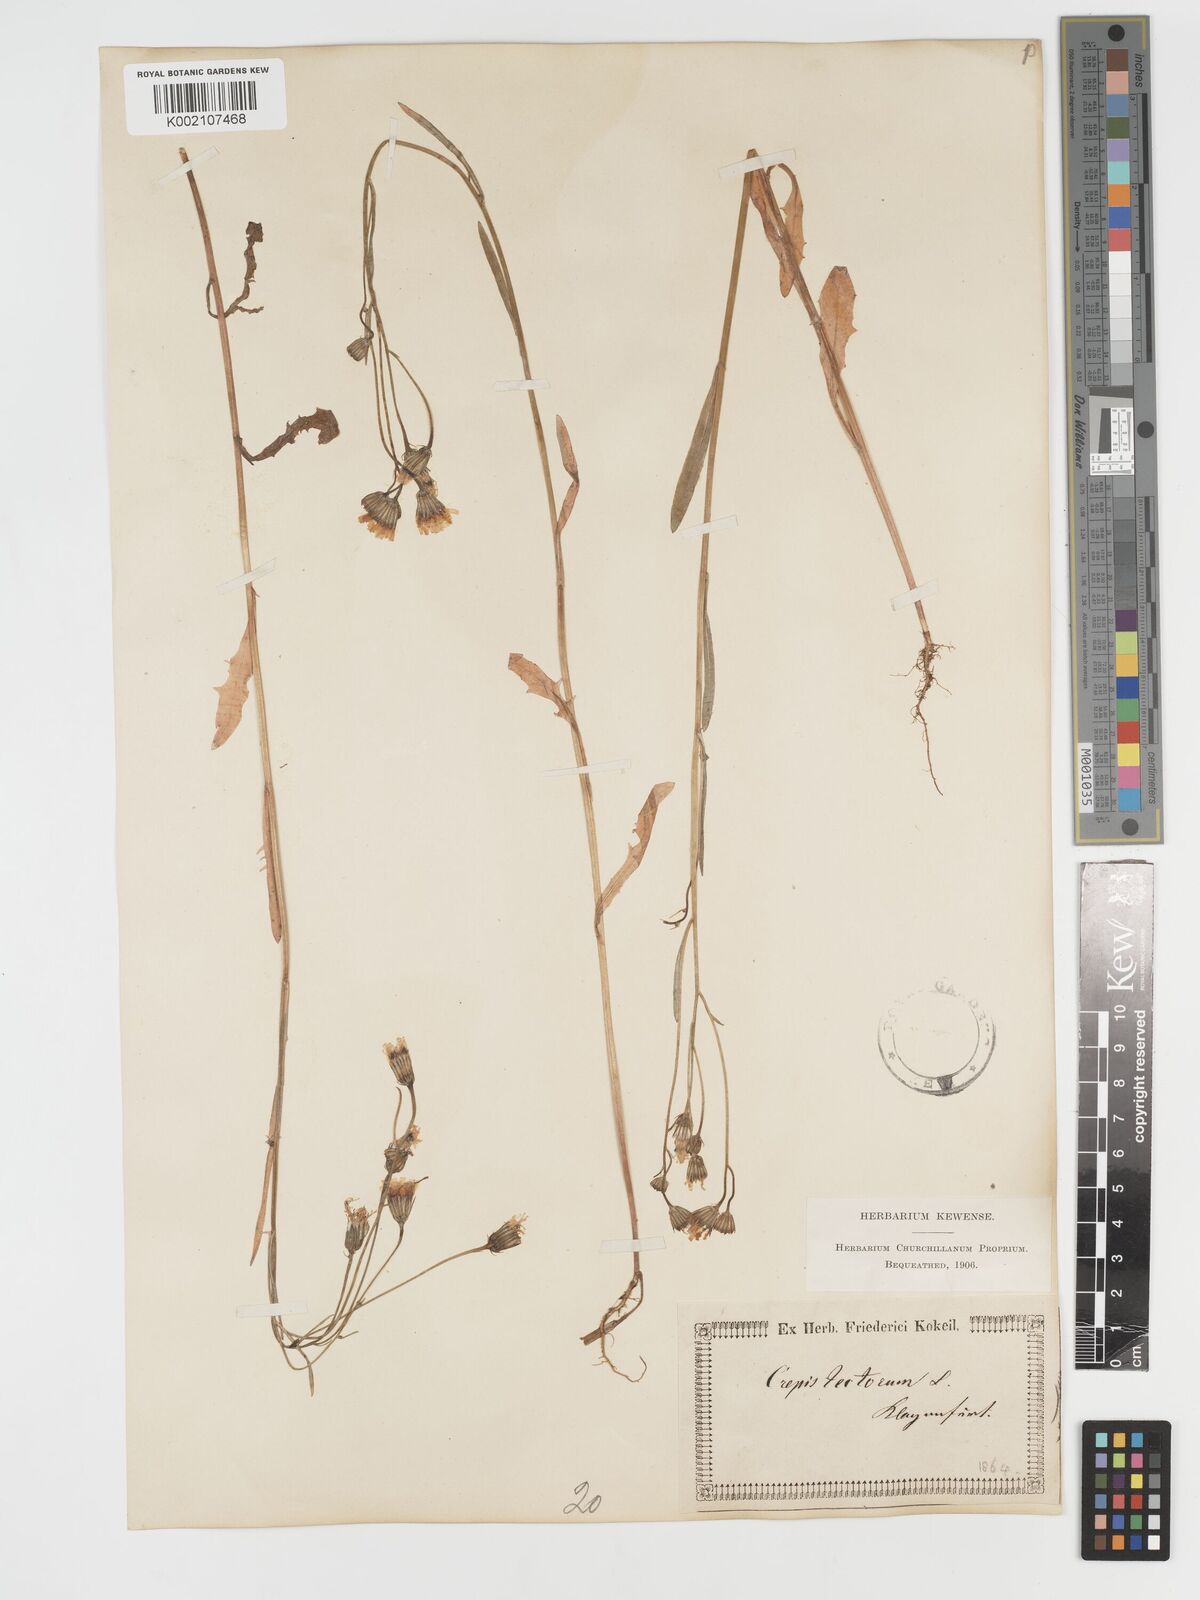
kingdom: Plantae
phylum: Tracheophyta
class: Magnoliopsida
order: Asterales
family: Asteraceae
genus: Crepis
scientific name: Crepis tectorum
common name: Narrow-leaved hawk's-beard
